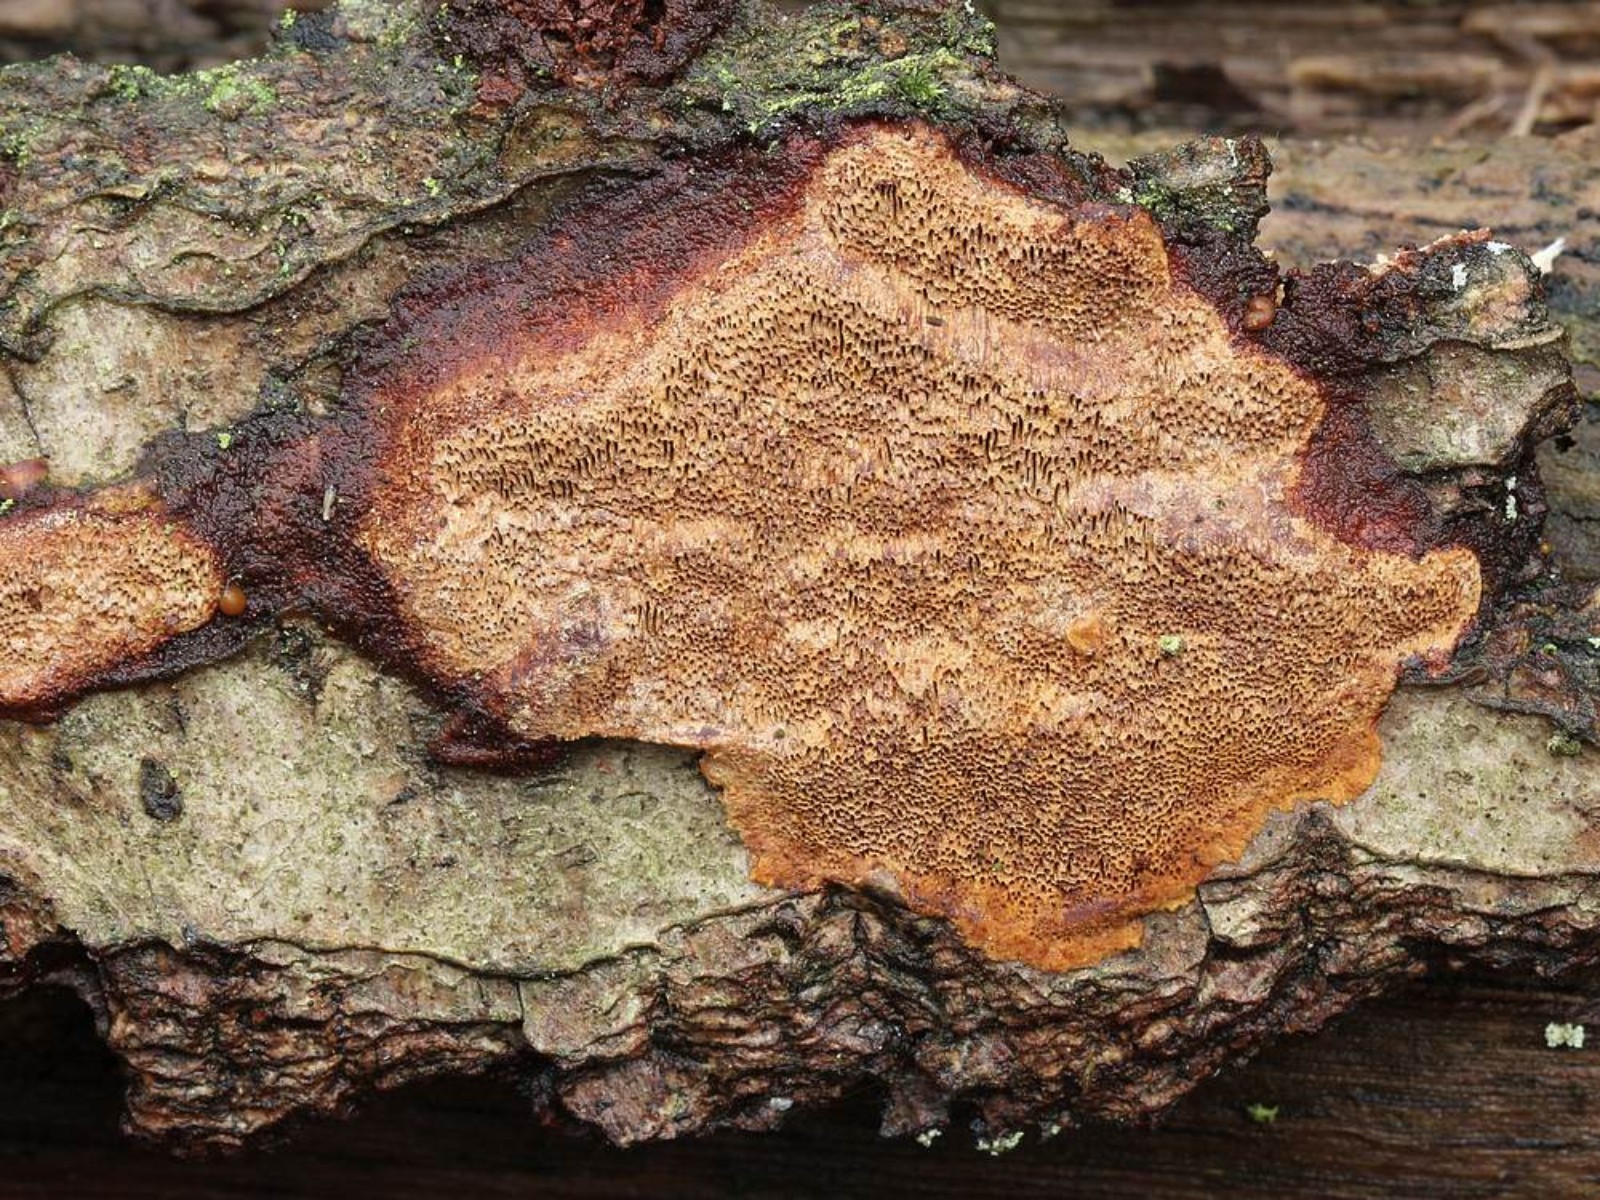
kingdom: Fungi
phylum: Basidiomycota
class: Agaricomycetes
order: Hymenochaetales
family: Hymenochaetaceae
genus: Fuscoporia
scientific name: Fuscoporia ferrea
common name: skorpe-ildporesvamp
